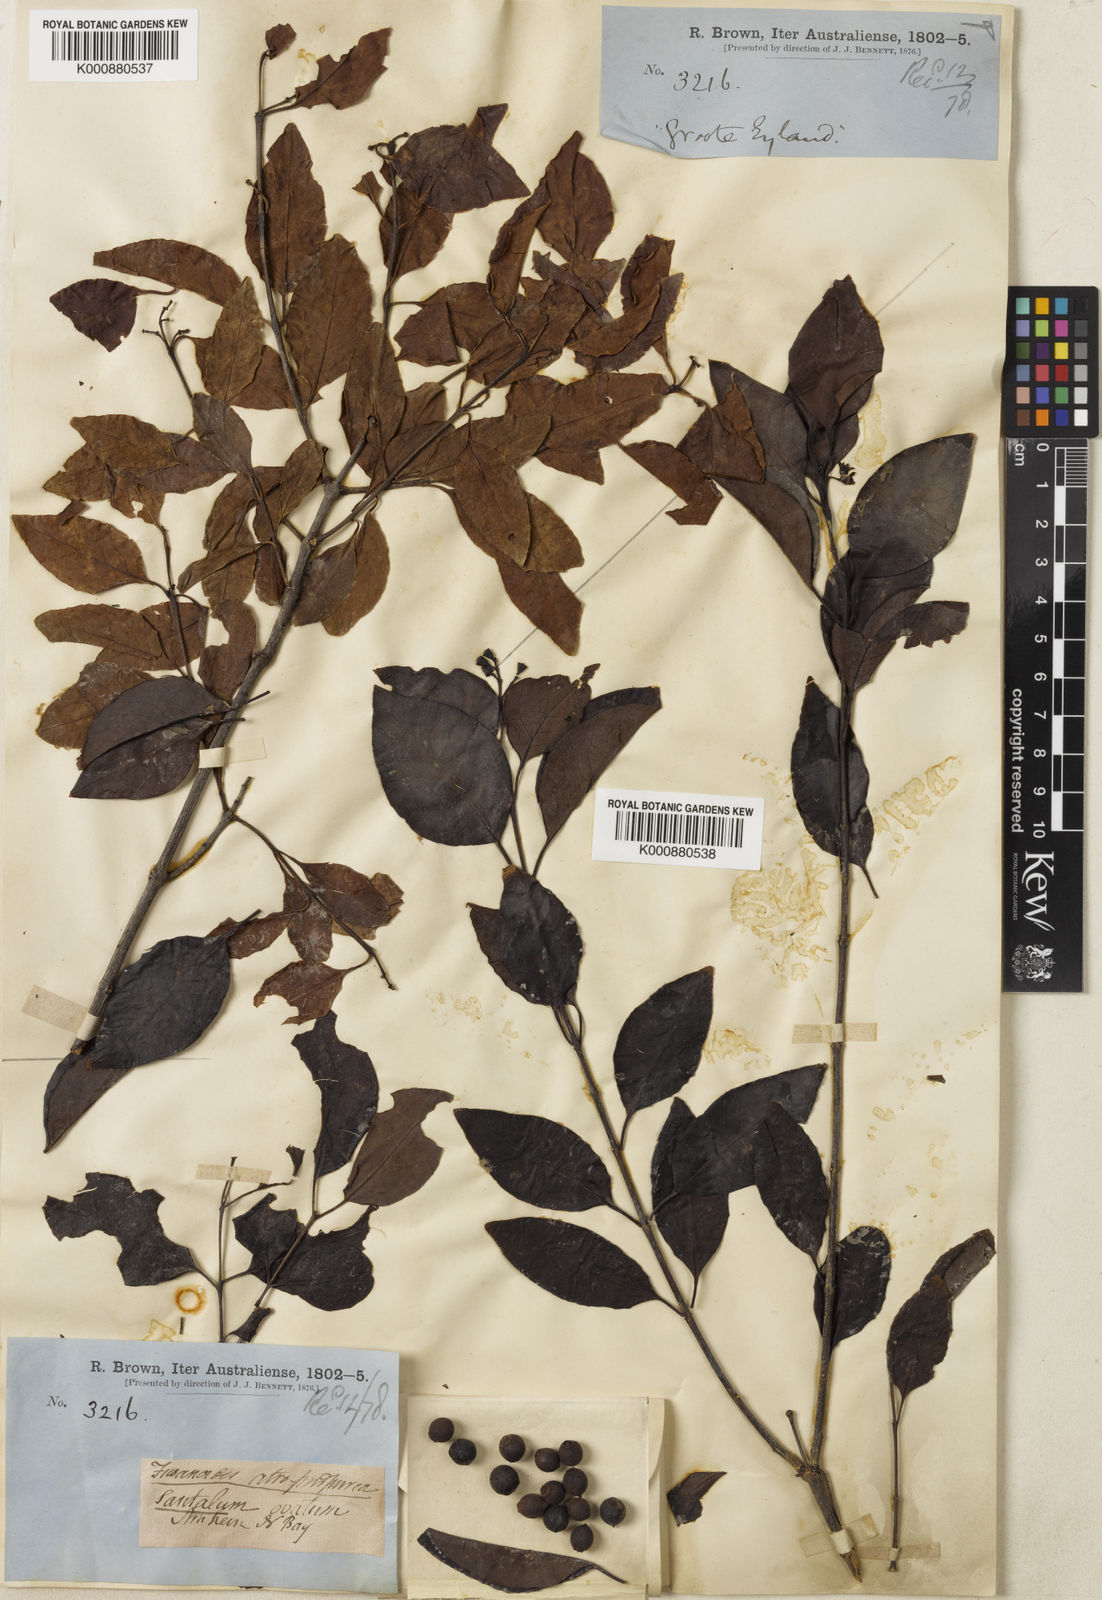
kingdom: Plantae
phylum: Tracheophyta
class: Magnoliopsida
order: Santalales
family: Santalaceae
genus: Santalum
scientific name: Santalum album
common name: Indian sandalwood
